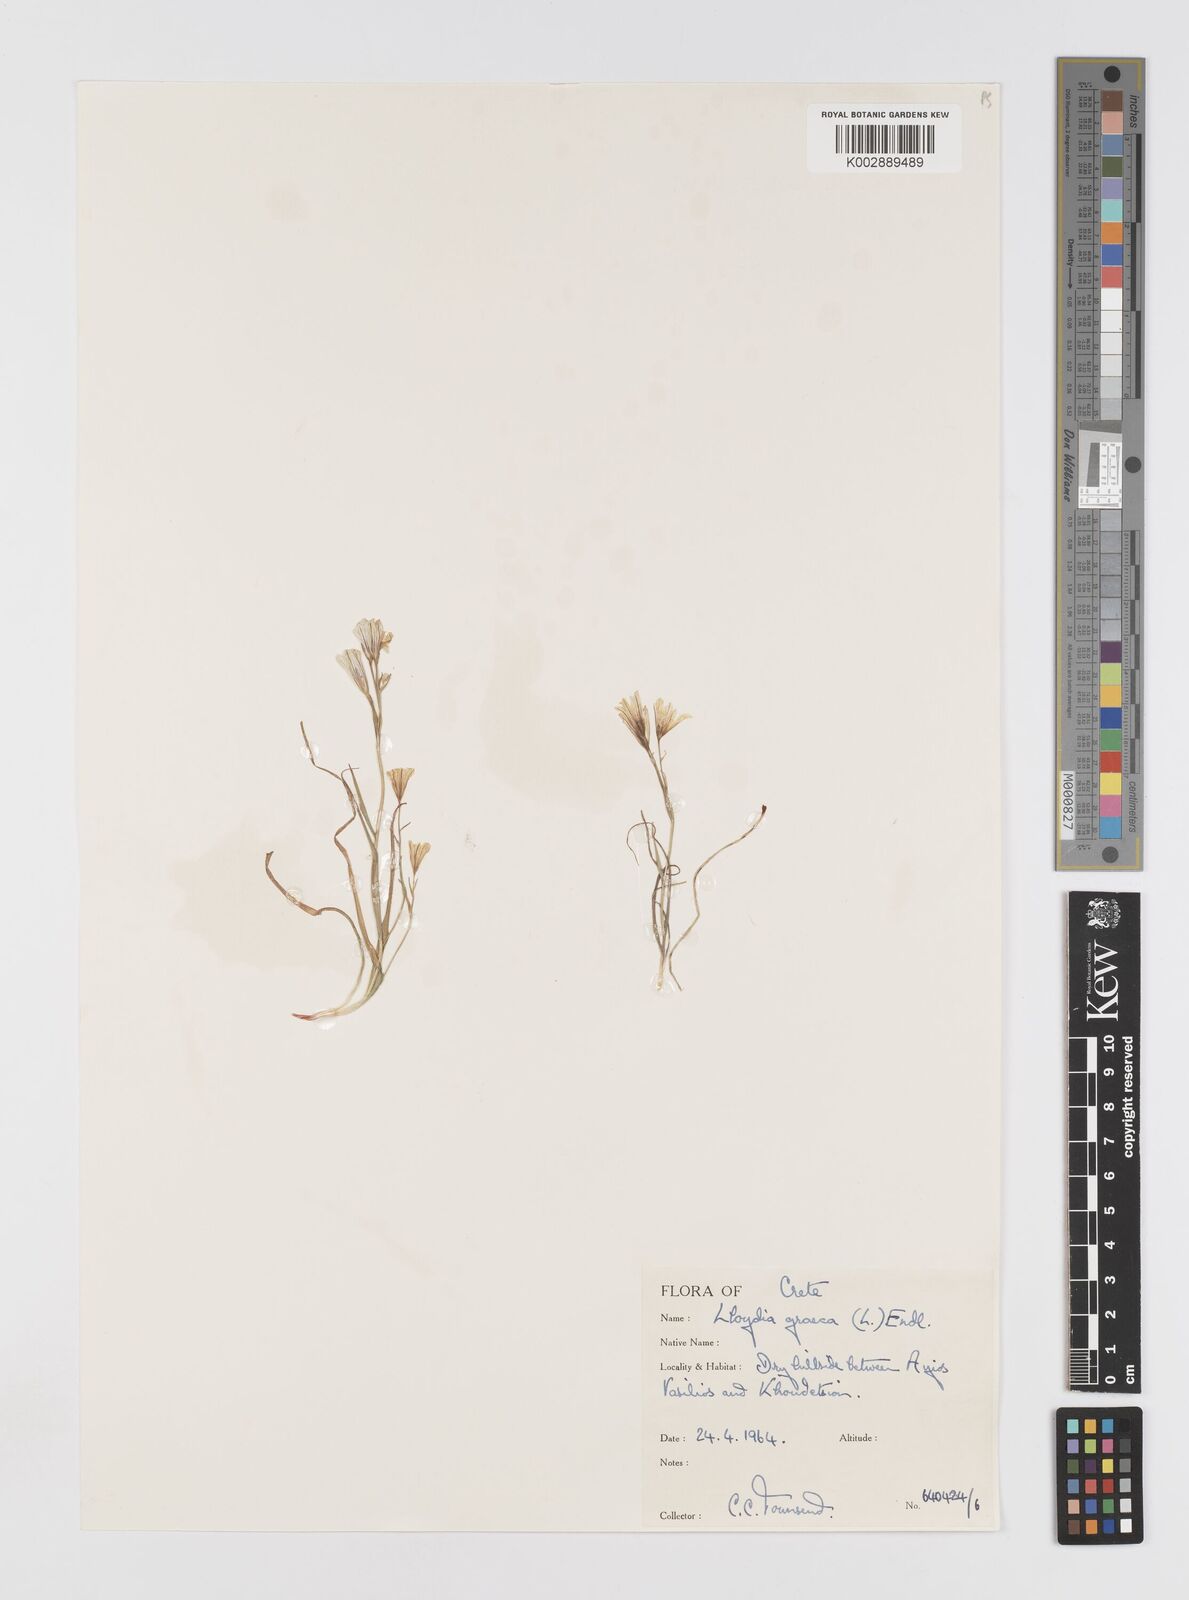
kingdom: Plantae
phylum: Tracheophyta
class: Liliopsida
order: Liliales
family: Liliaceae
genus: Gagea
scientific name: Gagea graeca
